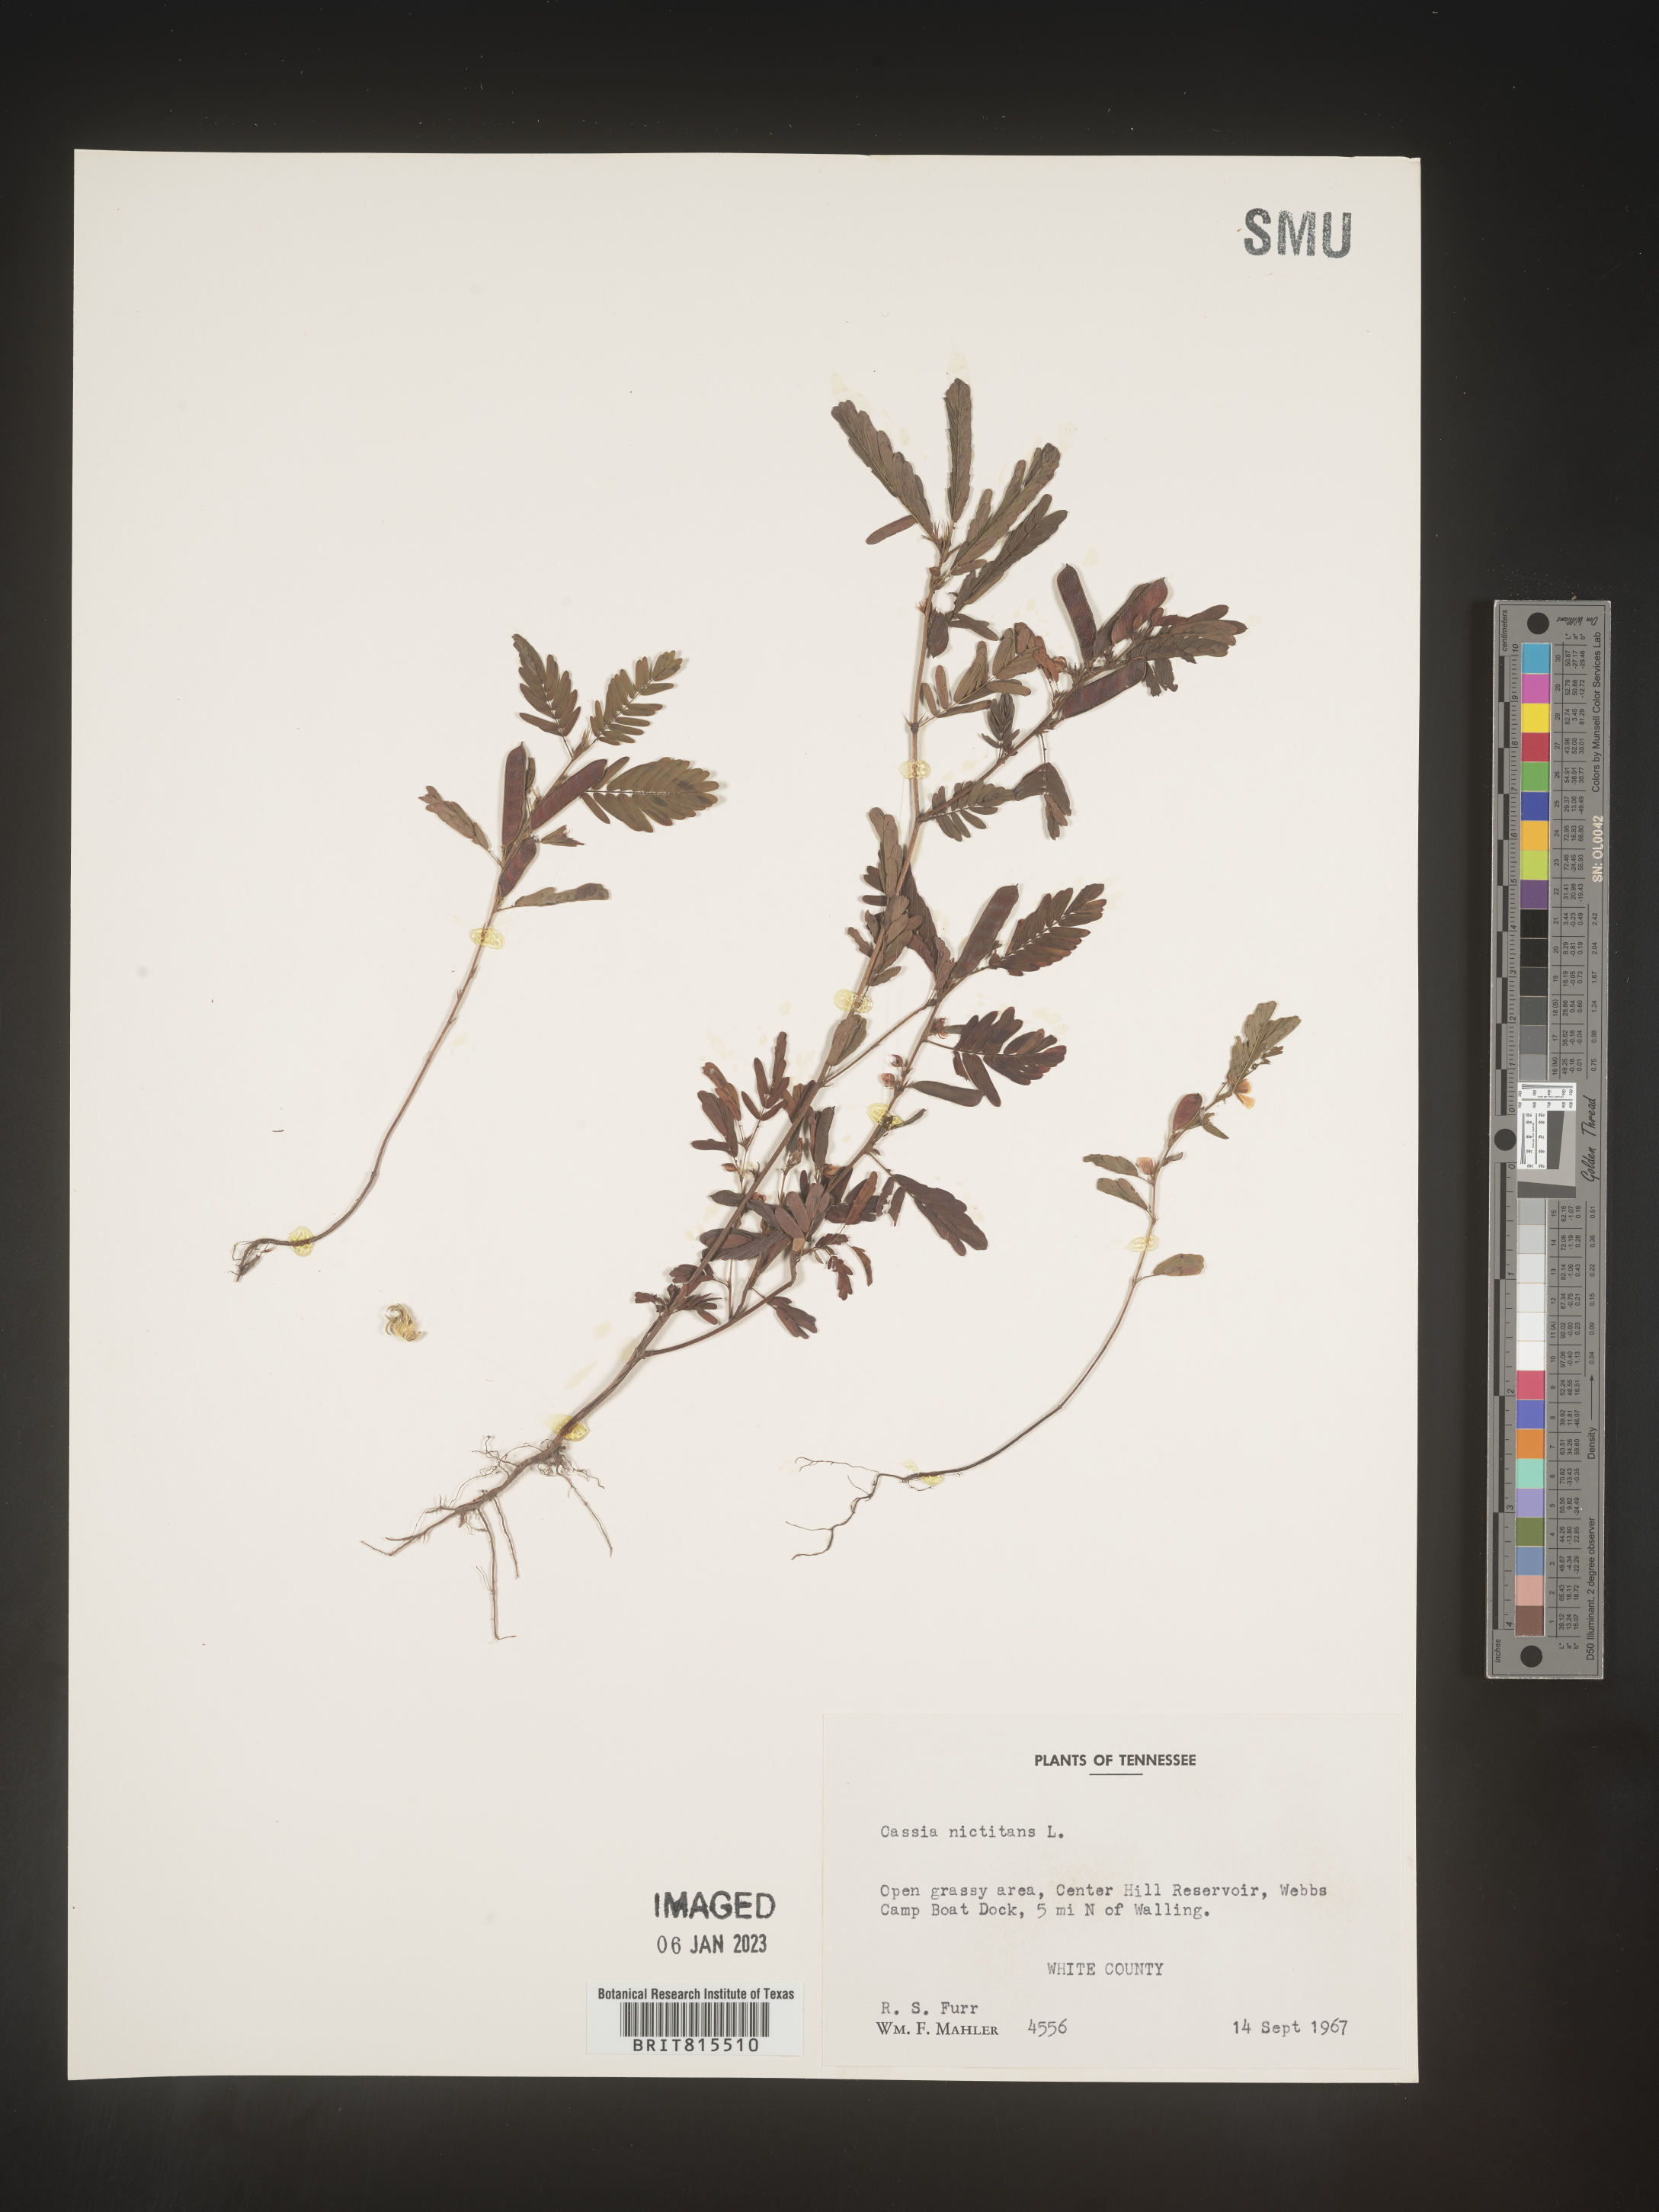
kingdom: Plantae
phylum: Tracheophyta
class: Magnoliopsida
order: Fabales
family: Fabaceae
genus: Chamaecrista
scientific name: Chamaecrista nictitans
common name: Sensitive cassia
